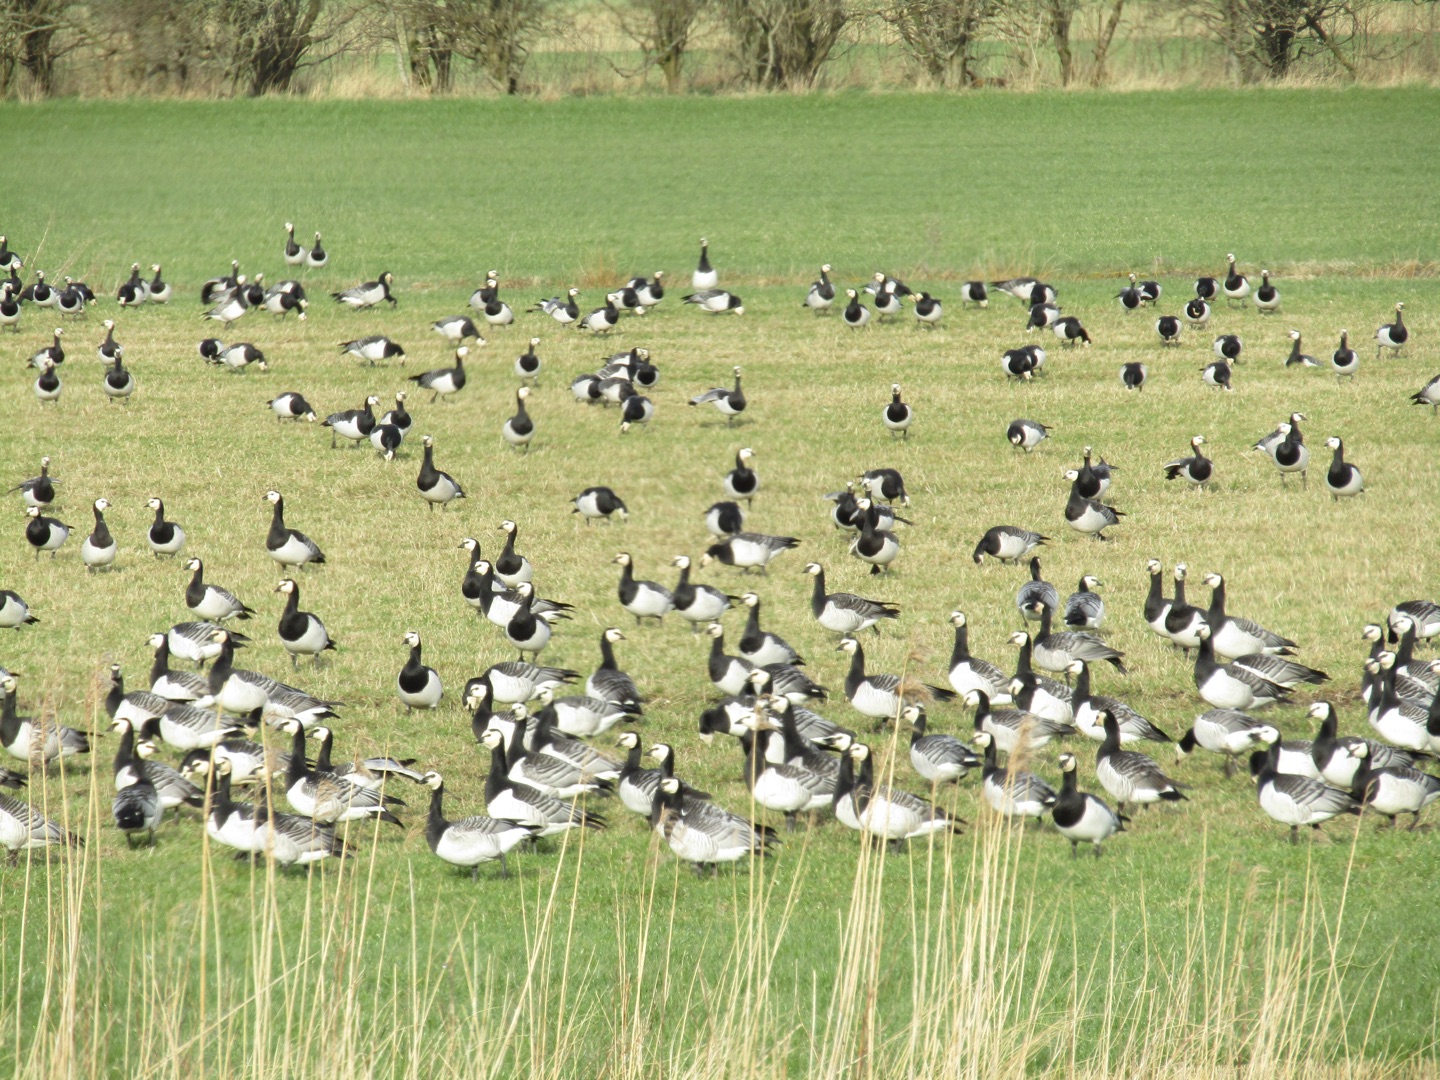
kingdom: Animalia
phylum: Chordata
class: Aves
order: Anseriformes
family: Anatidae
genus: Branta
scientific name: Branta leucopsis
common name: Bramgås
